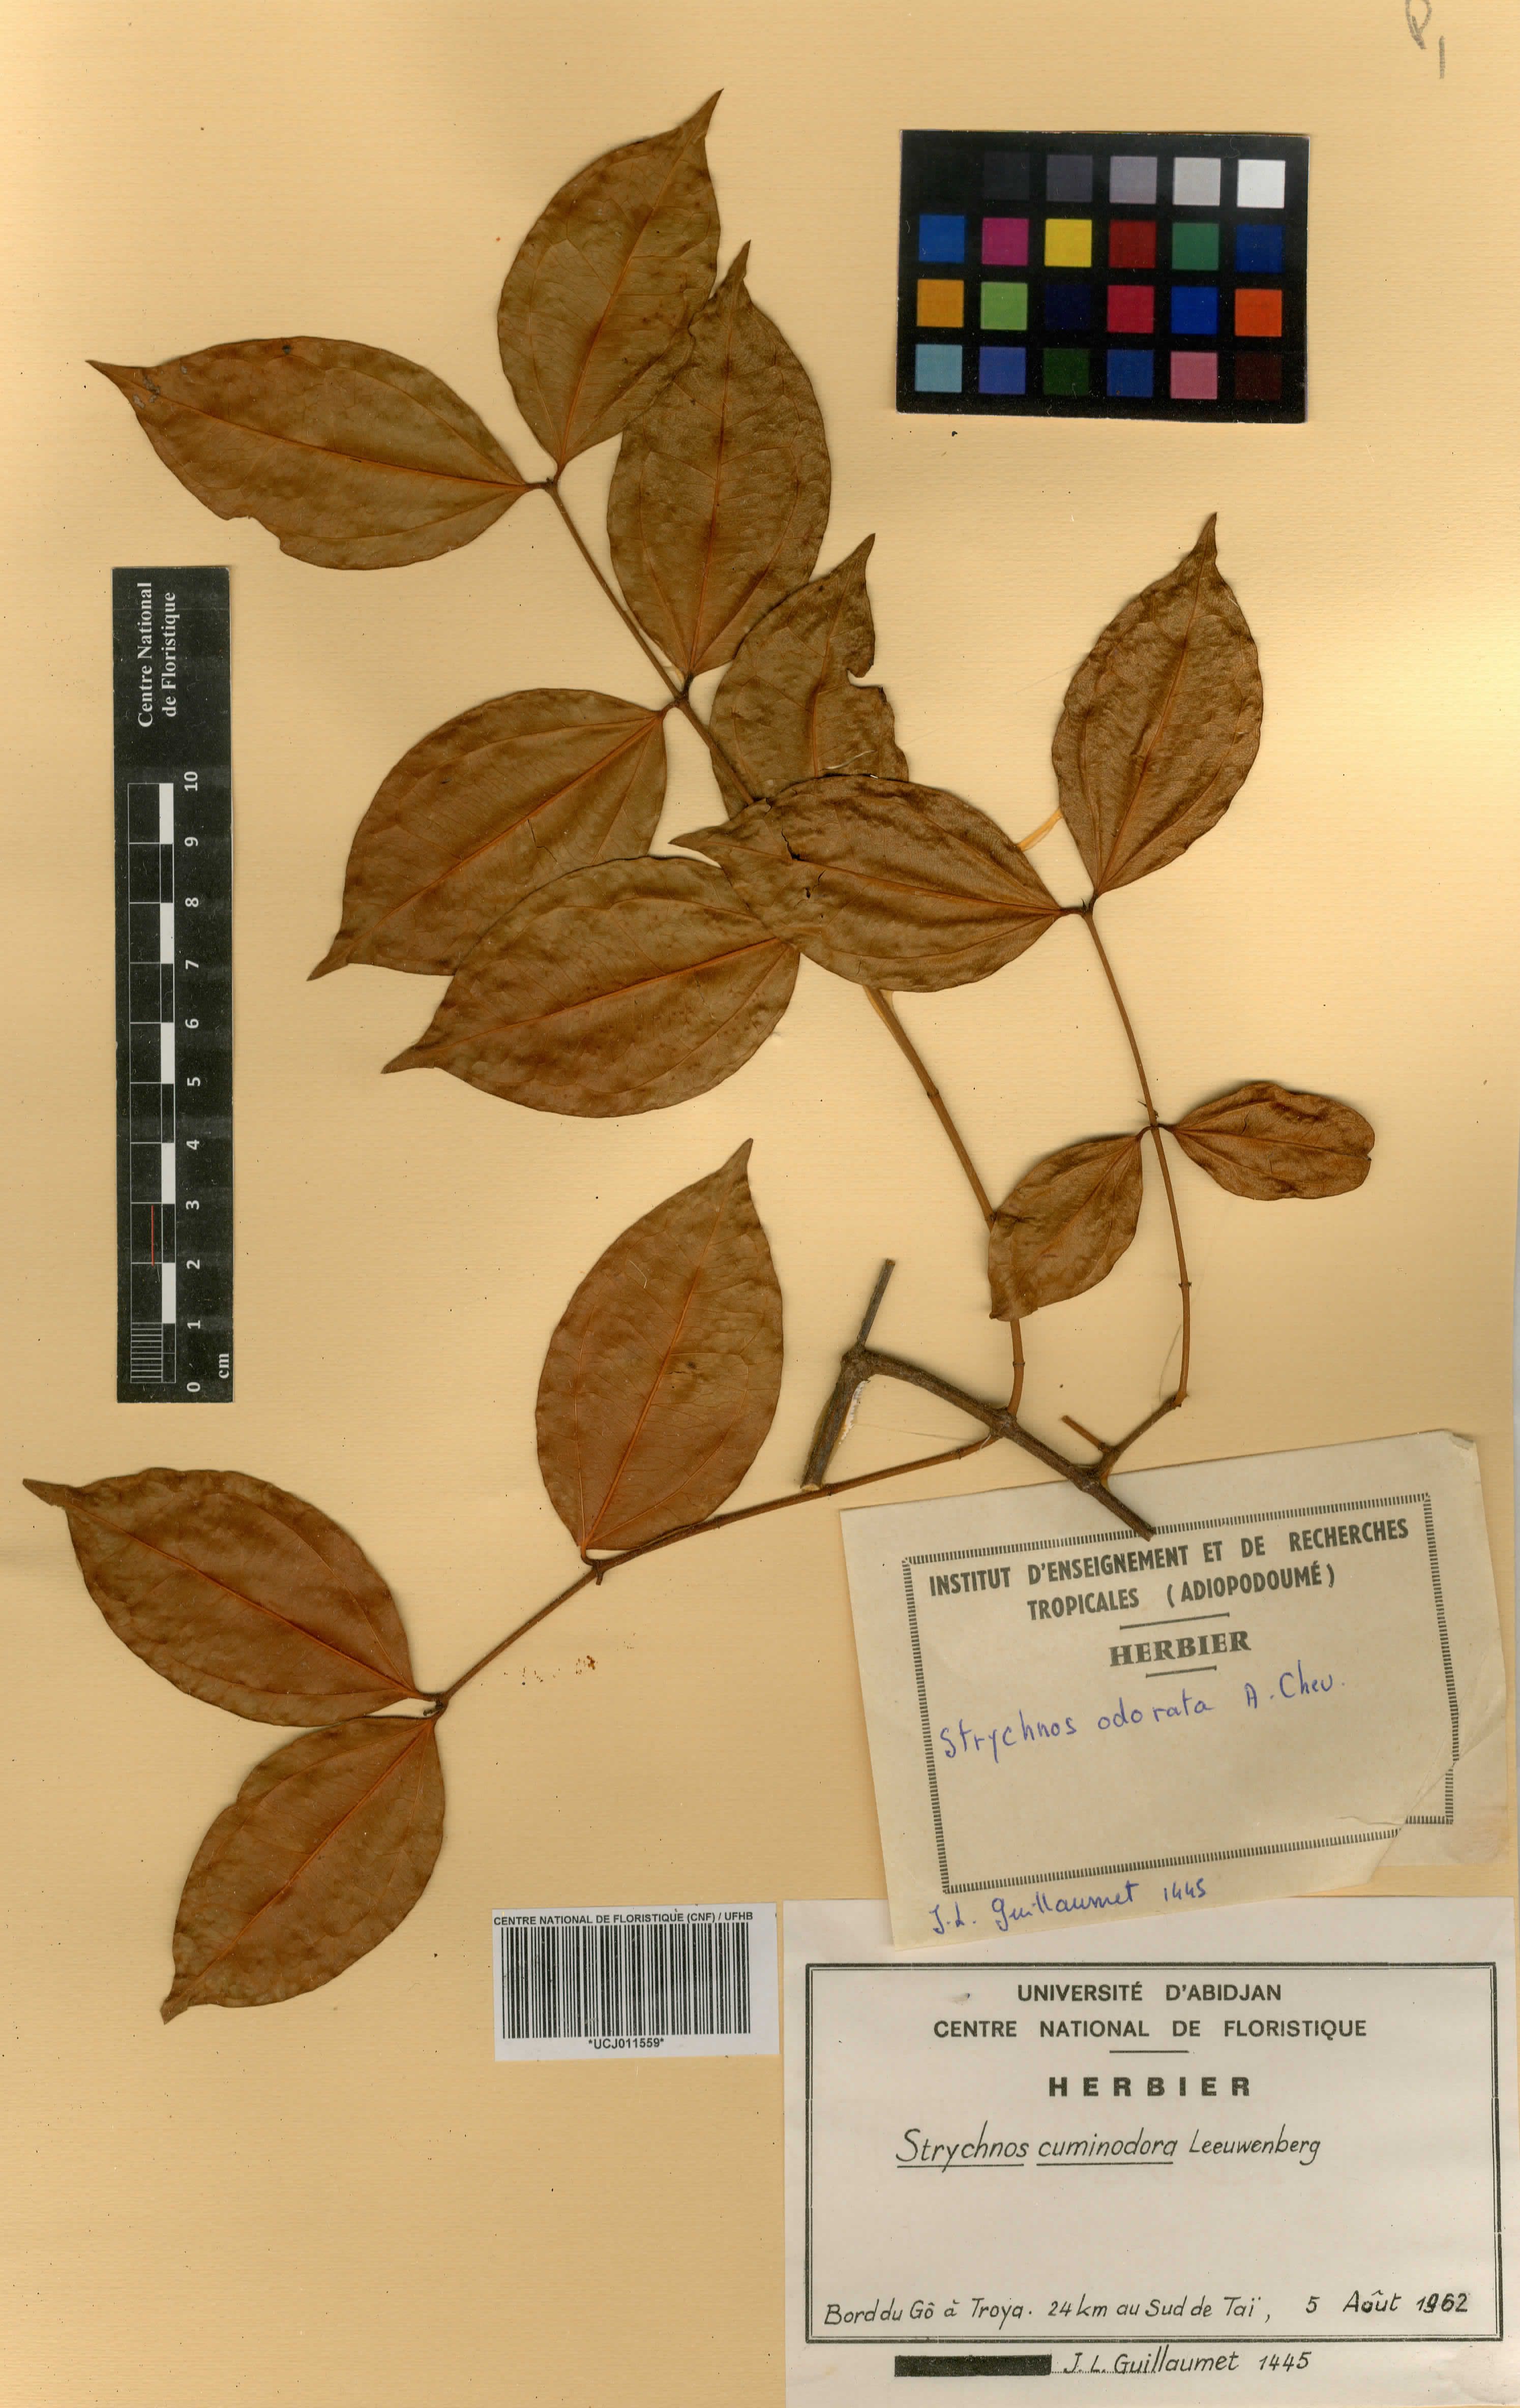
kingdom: Plantae
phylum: Tracheophyta
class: Magnoliopsida
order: Gentianales
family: Loganiaceae
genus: Strychnos
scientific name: Strychnos cuminodora
